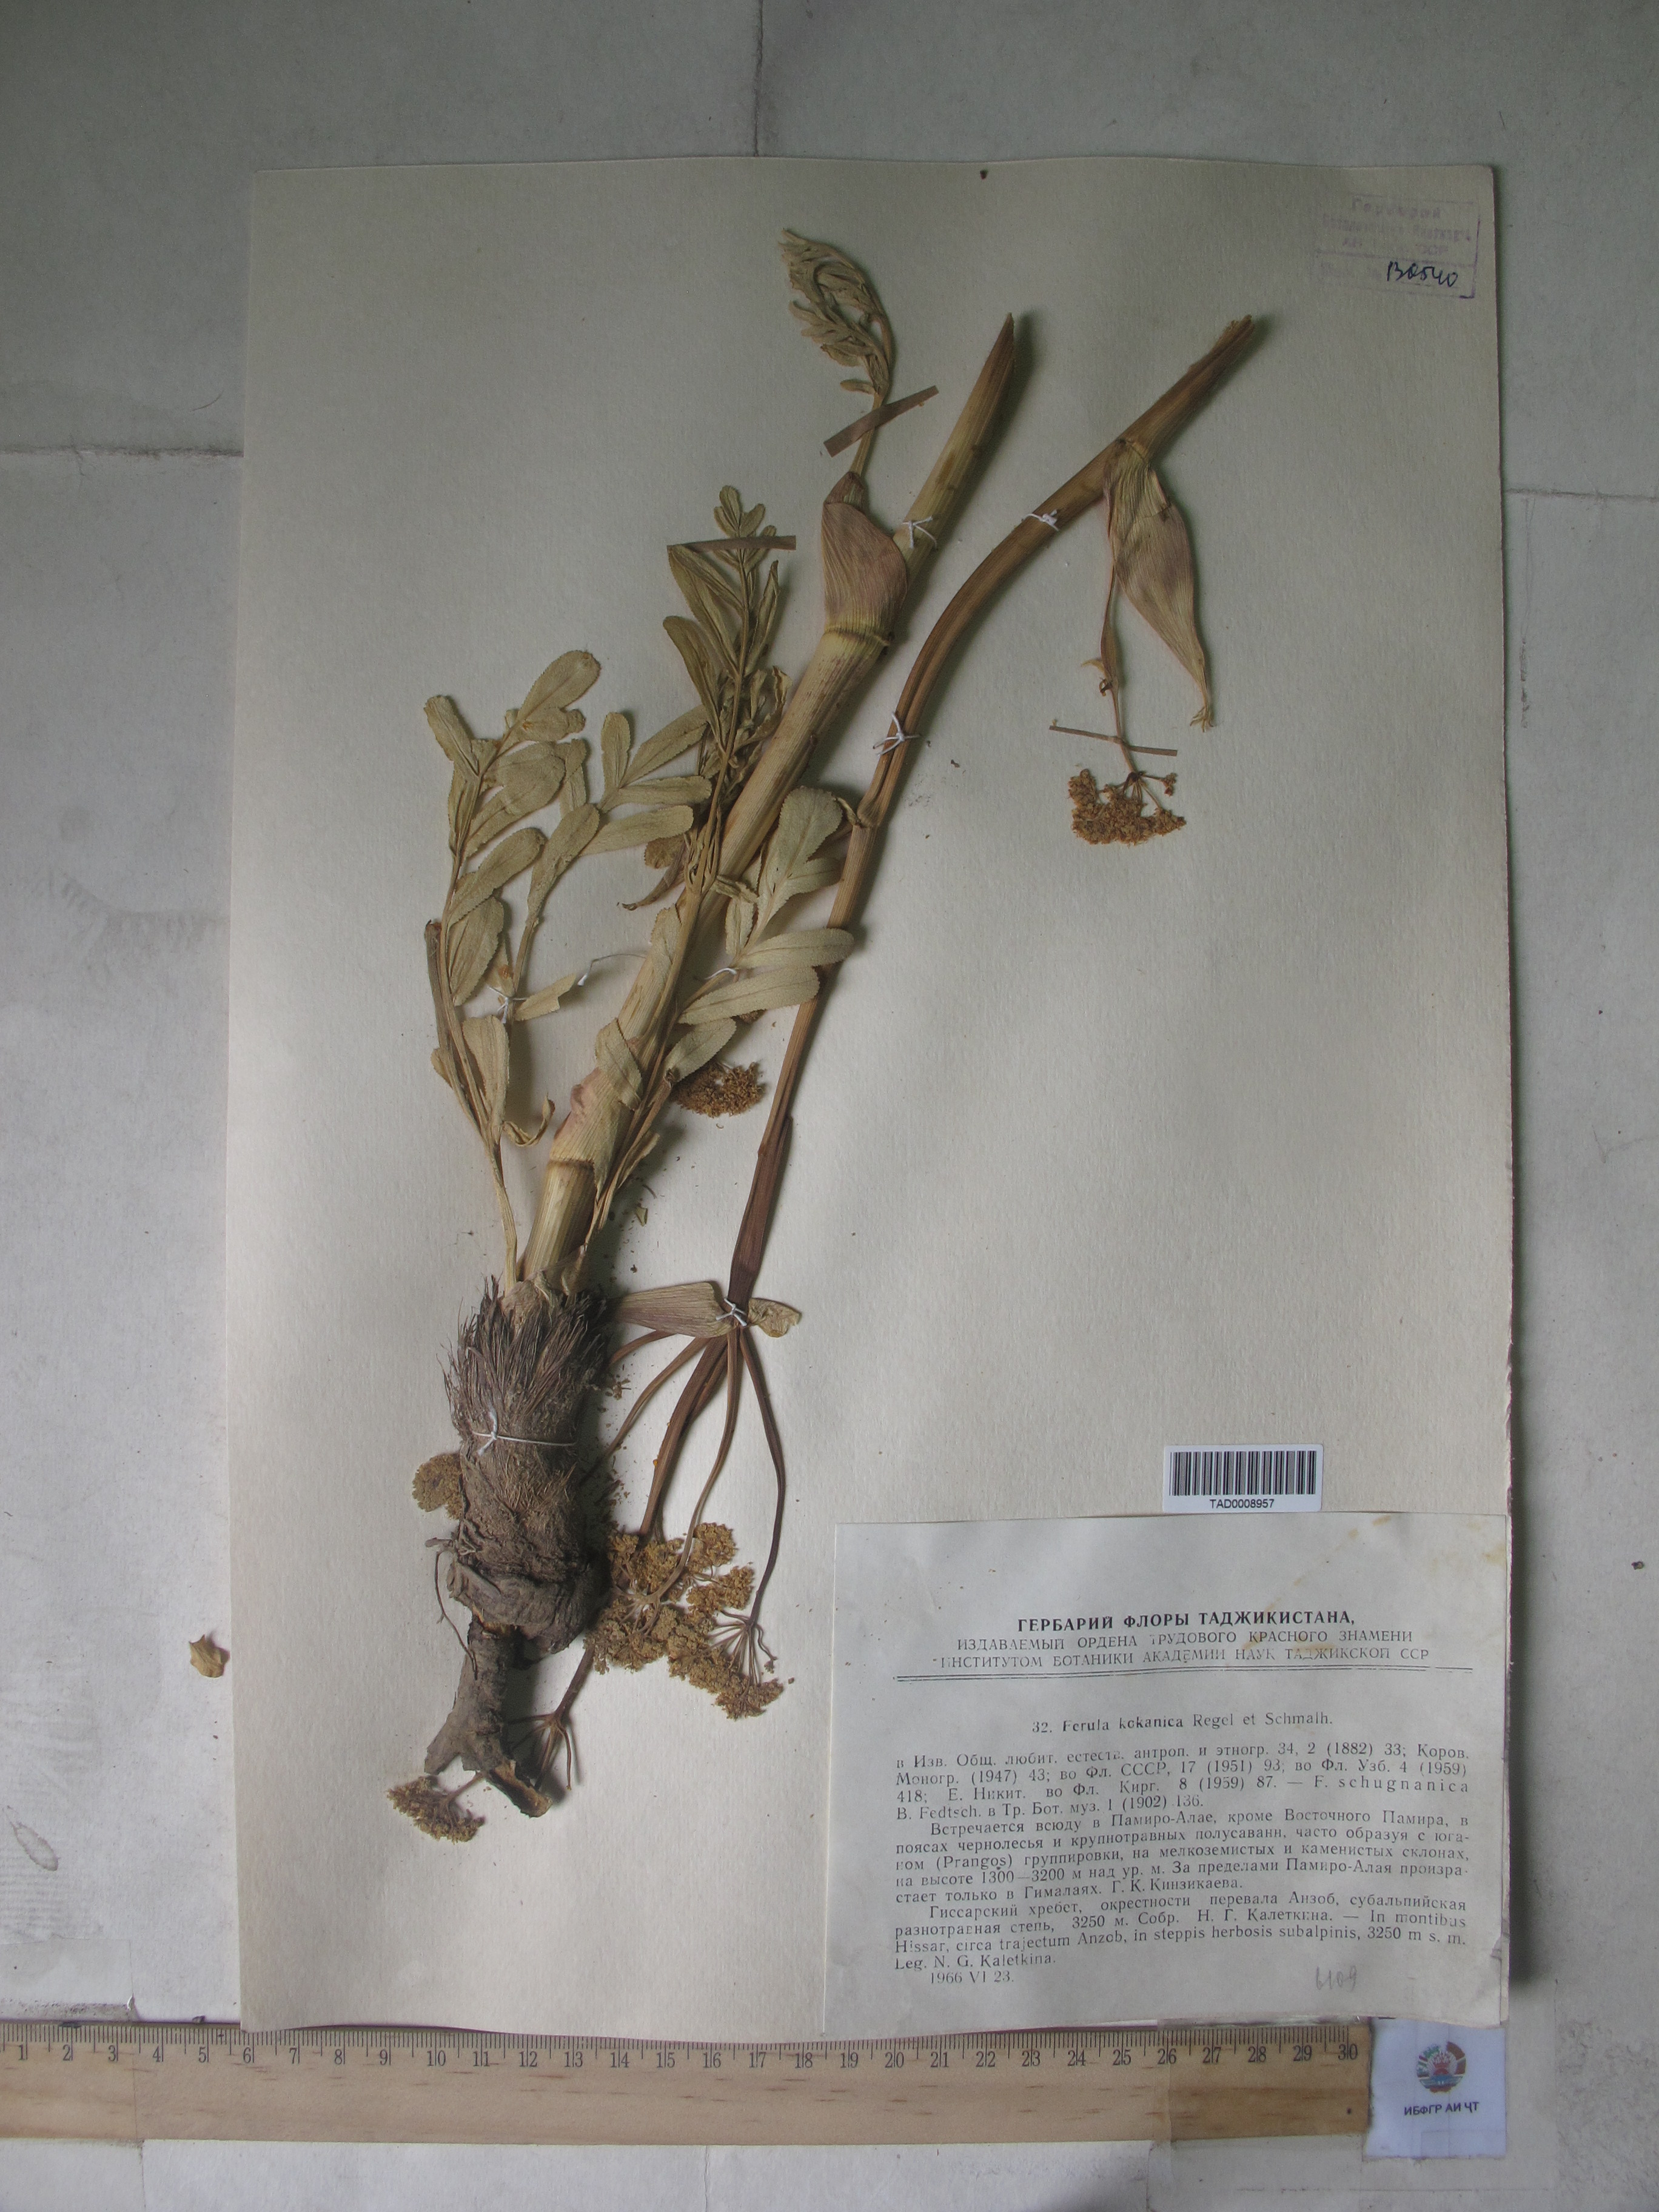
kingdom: Plantae
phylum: Tracheophyta
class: Magnoliopsida
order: Apiales
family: Apiaceae
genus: Ferula
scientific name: Ferula kokanica
